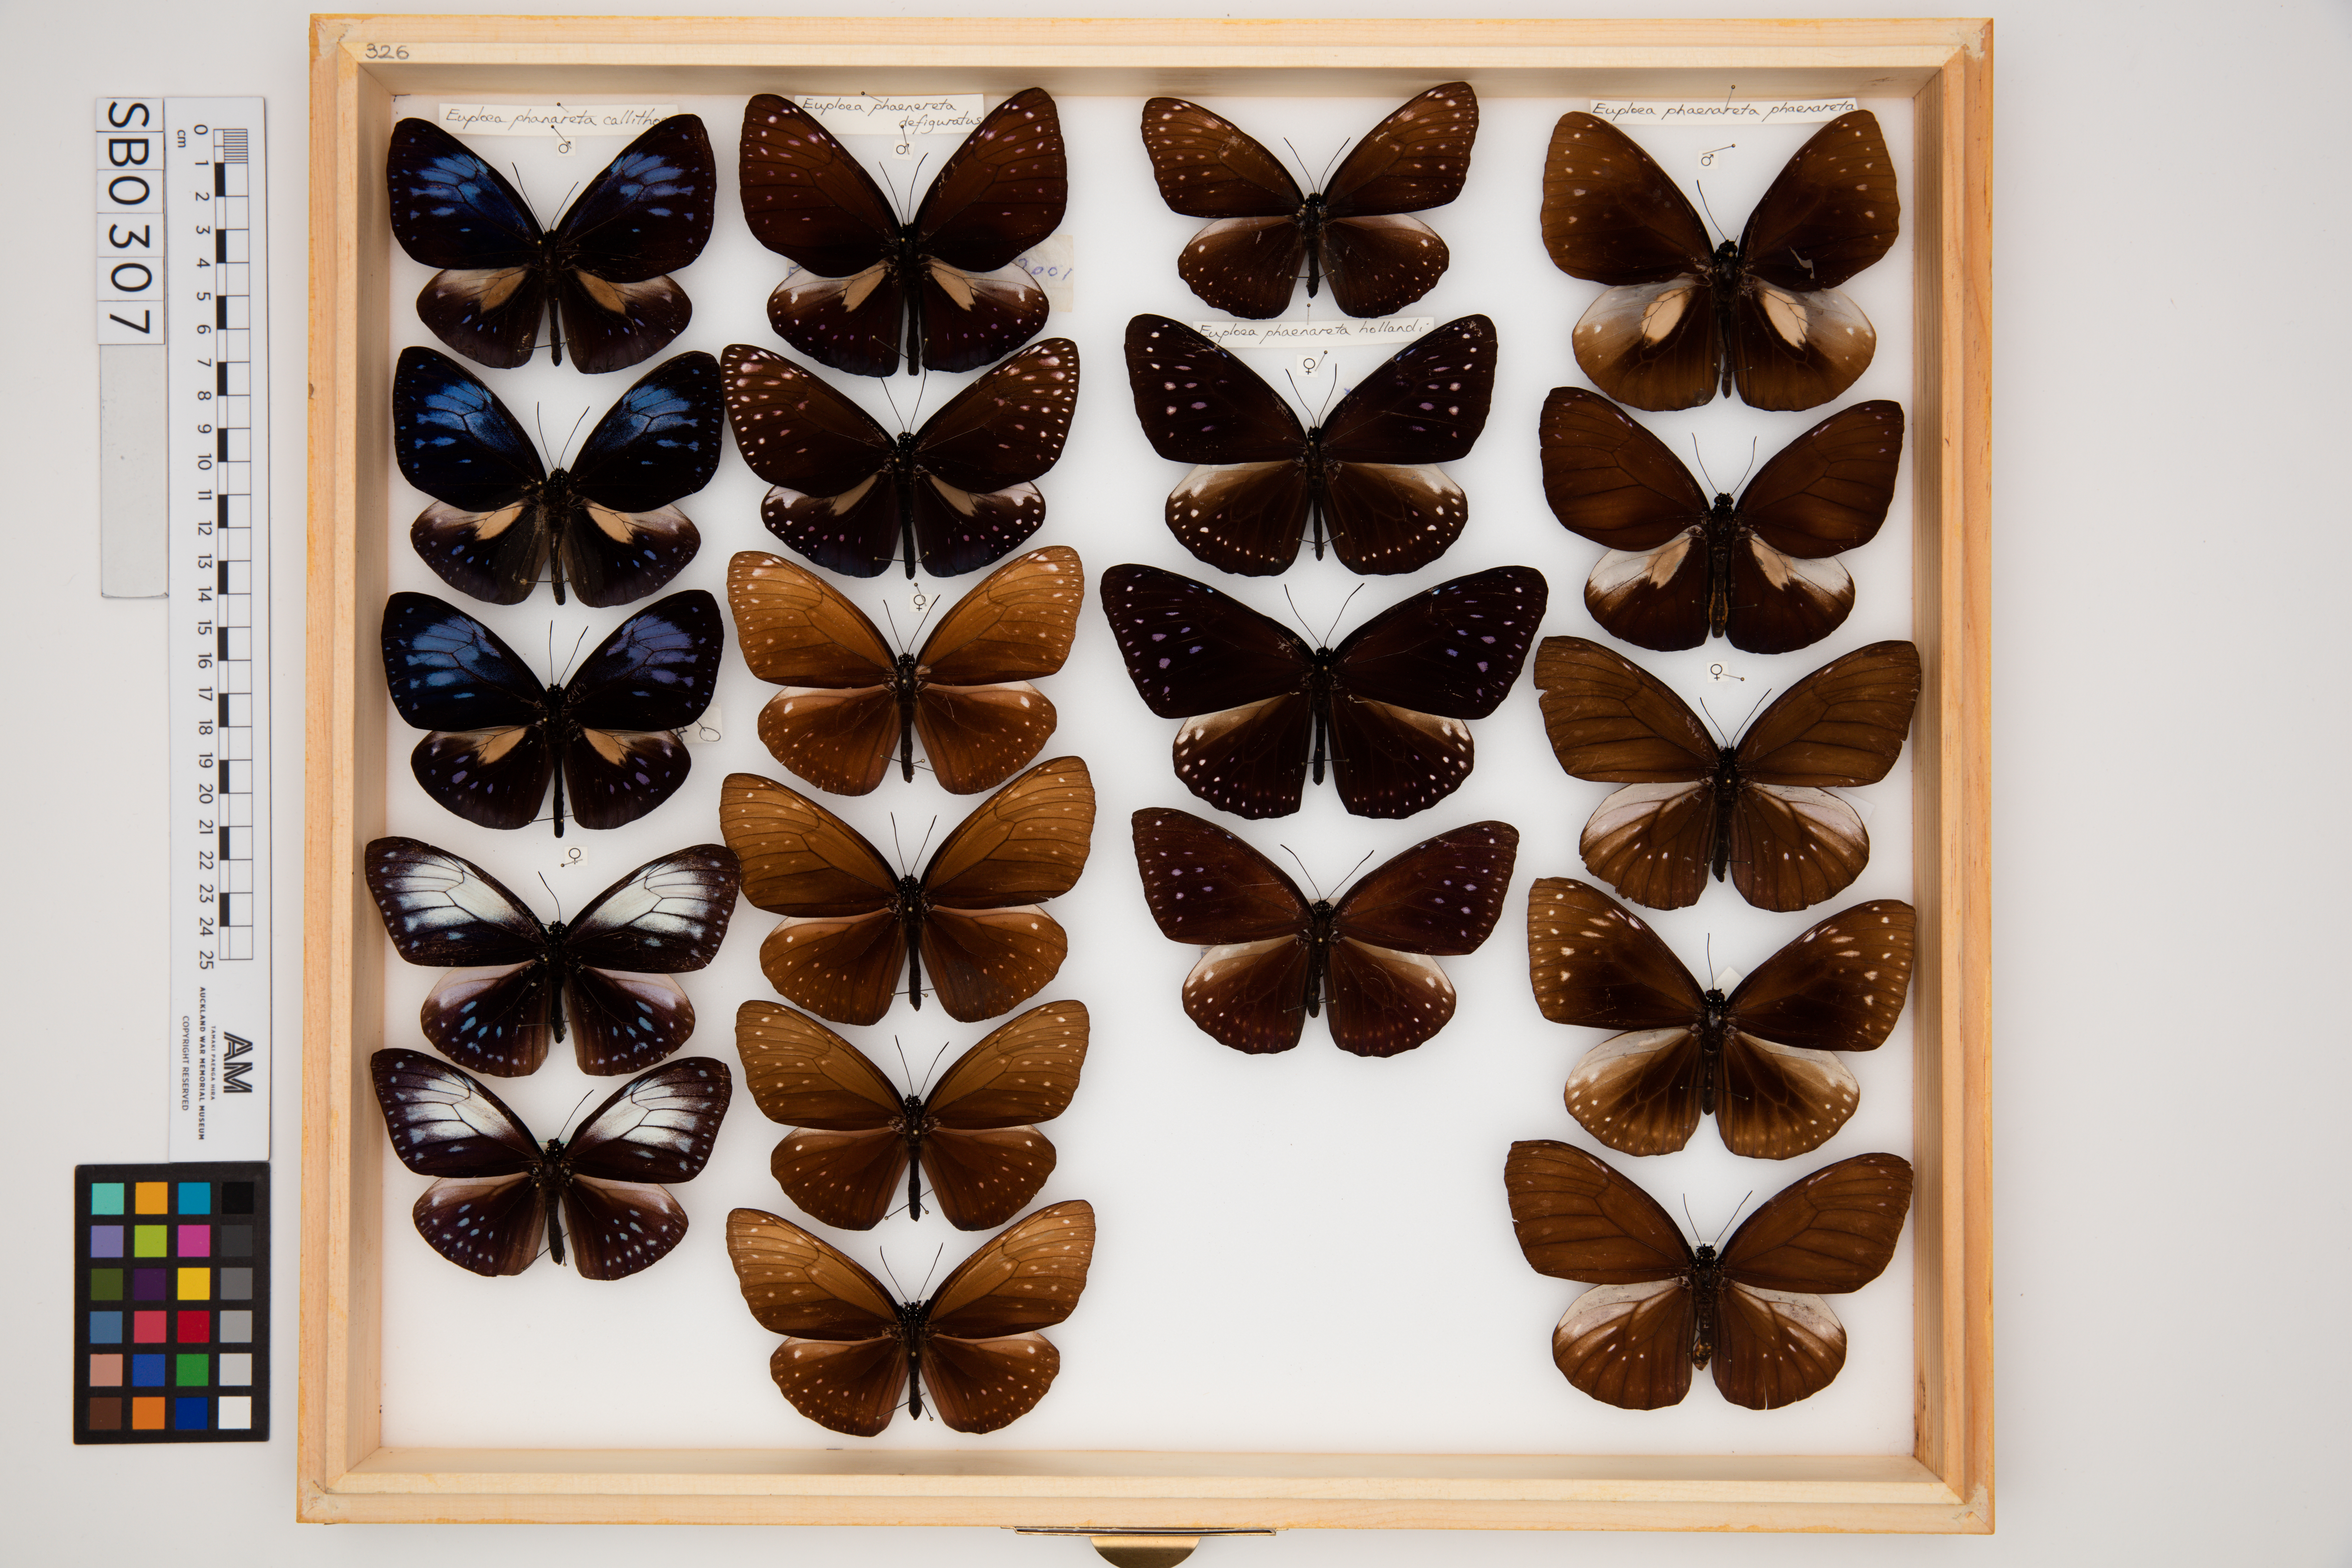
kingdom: Animalia
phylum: Arthropoda
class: Insecta
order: Lepidoptera
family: Nymphalidae
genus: Euploea
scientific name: Euploea phaenareta
